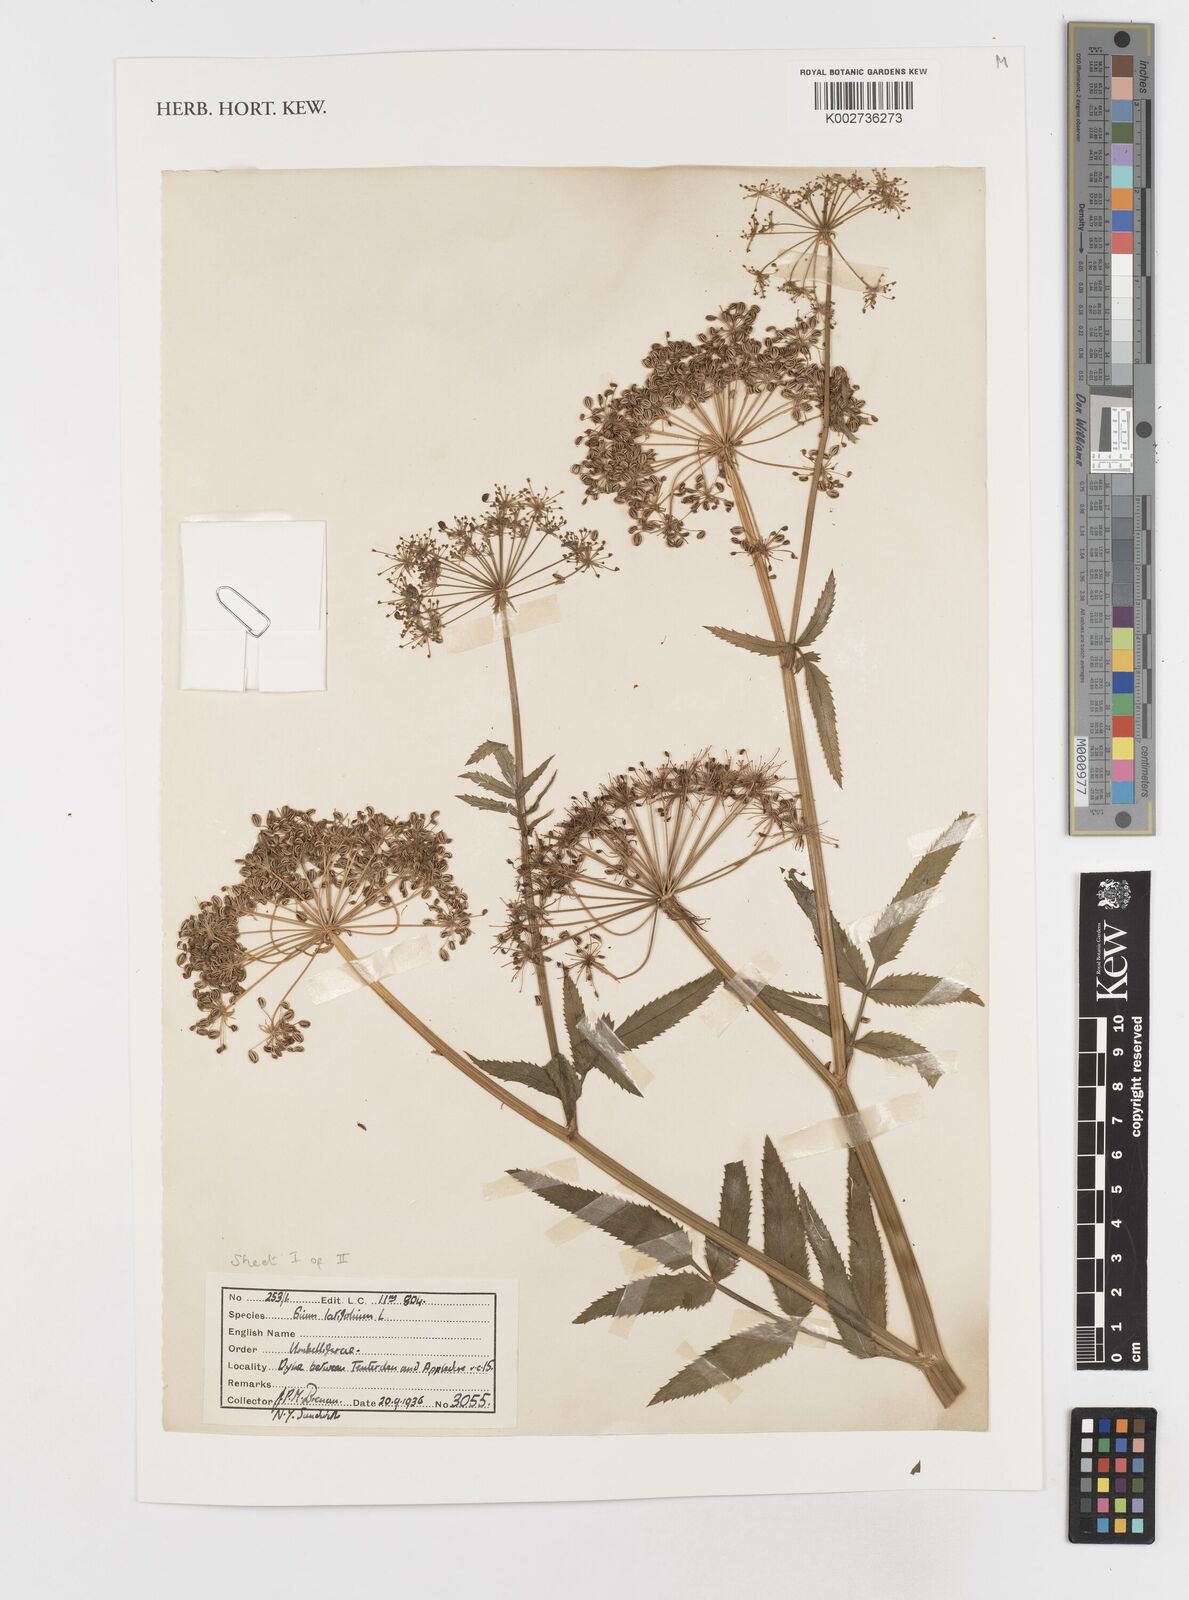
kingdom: Plantae
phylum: Tracheophyta
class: Magnoliopsida
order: Apiales
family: Apiaceae
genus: Sium
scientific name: Sium latifolium
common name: Greater water-parsnip
